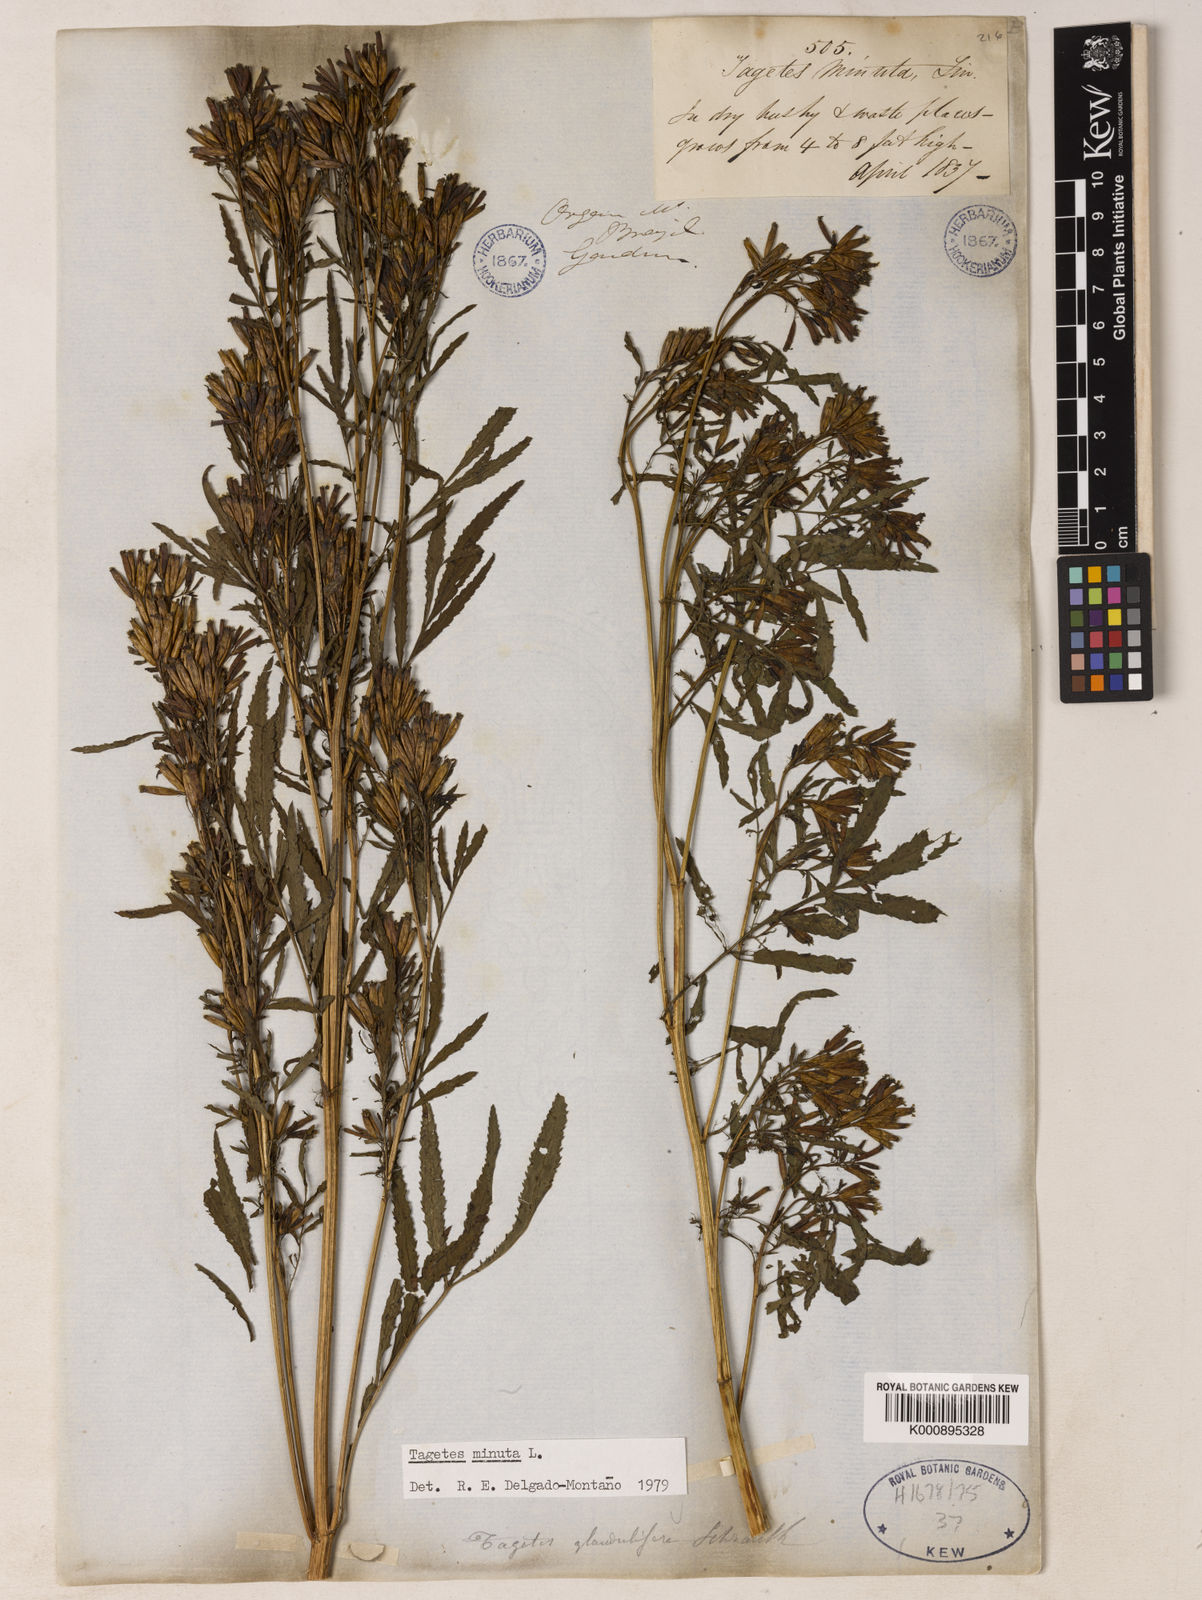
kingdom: Plantae
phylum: Tracheophyta
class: Magnoliopsida
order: Asterales
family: Asteraceae
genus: Tagetes
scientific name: Tagetes minuta
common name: Muster john henry
